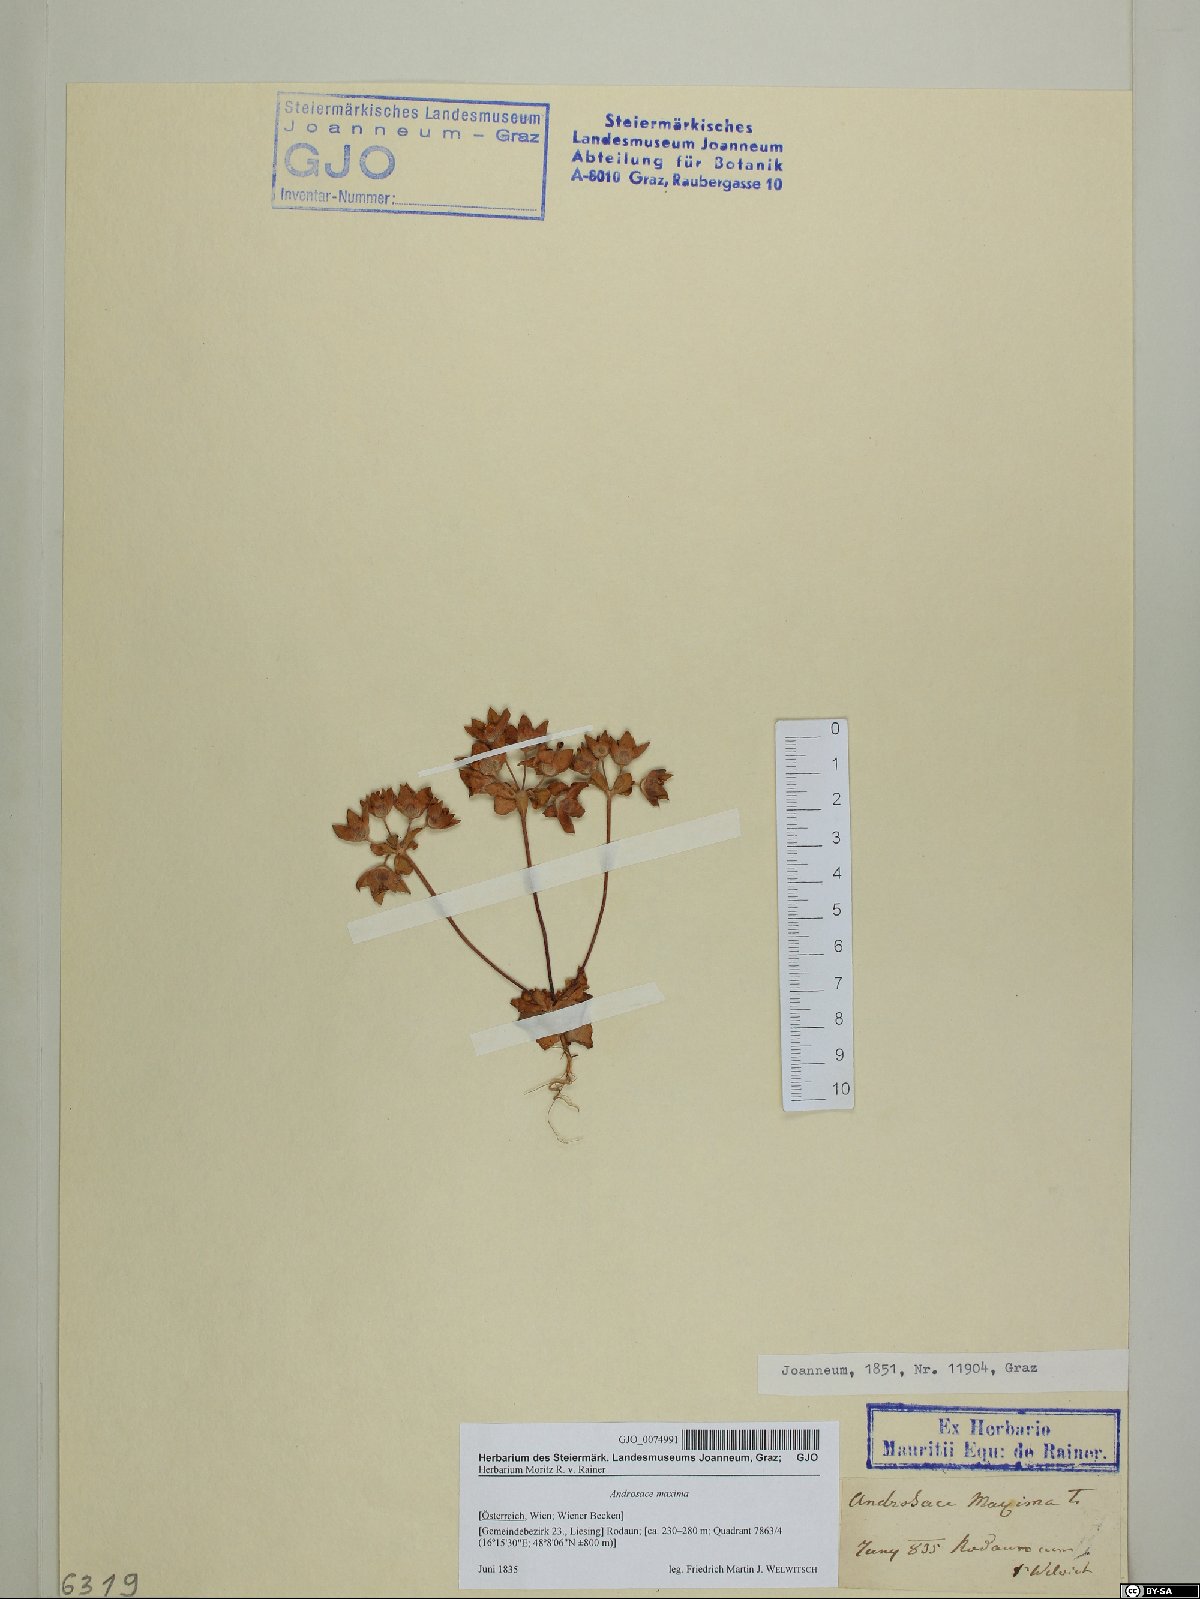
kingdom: Plantae
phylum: Tracheophyta
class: Magnoliopsida
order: Ericales
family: Primulaceae
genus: Androsace
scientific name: Androsace maxima
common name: Annual androsace
